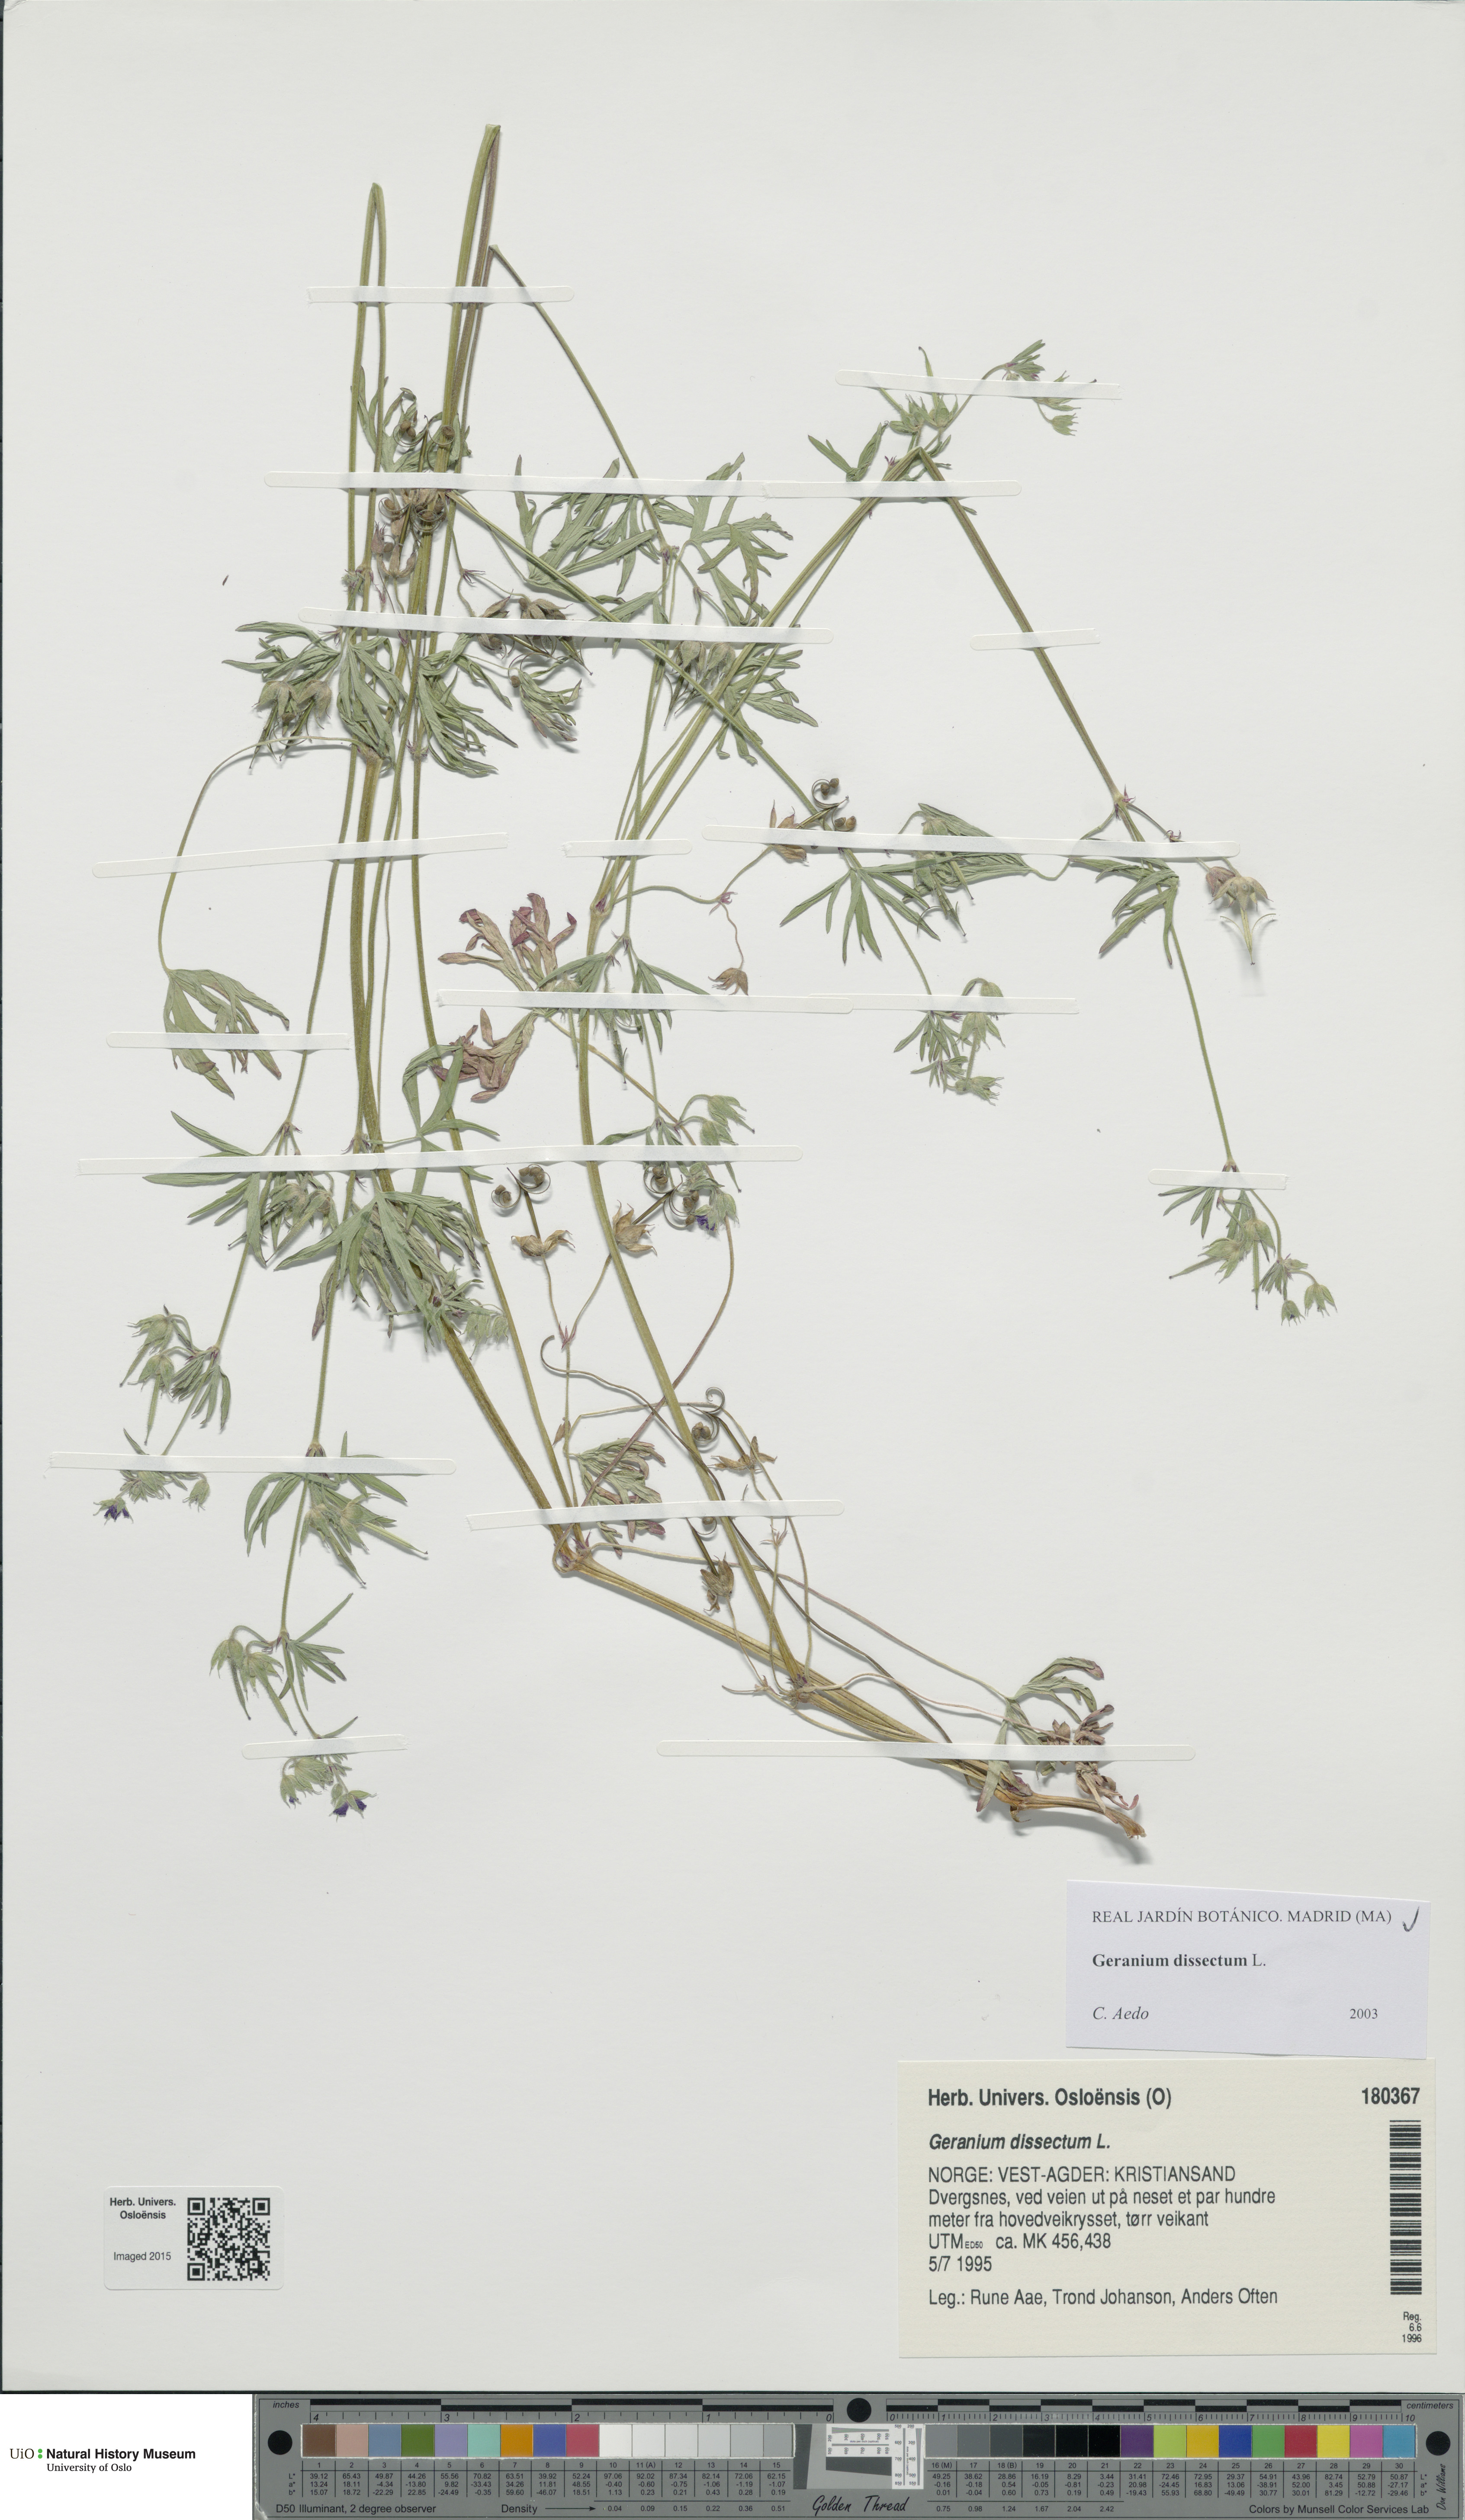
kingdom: Plantae
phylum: Tracheophyta
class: Magnoliopsida
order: Geraniales
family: Geraniaceae
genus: Geranium
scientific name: Geranium dissectum
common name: Cut-leaved crane's-bill
